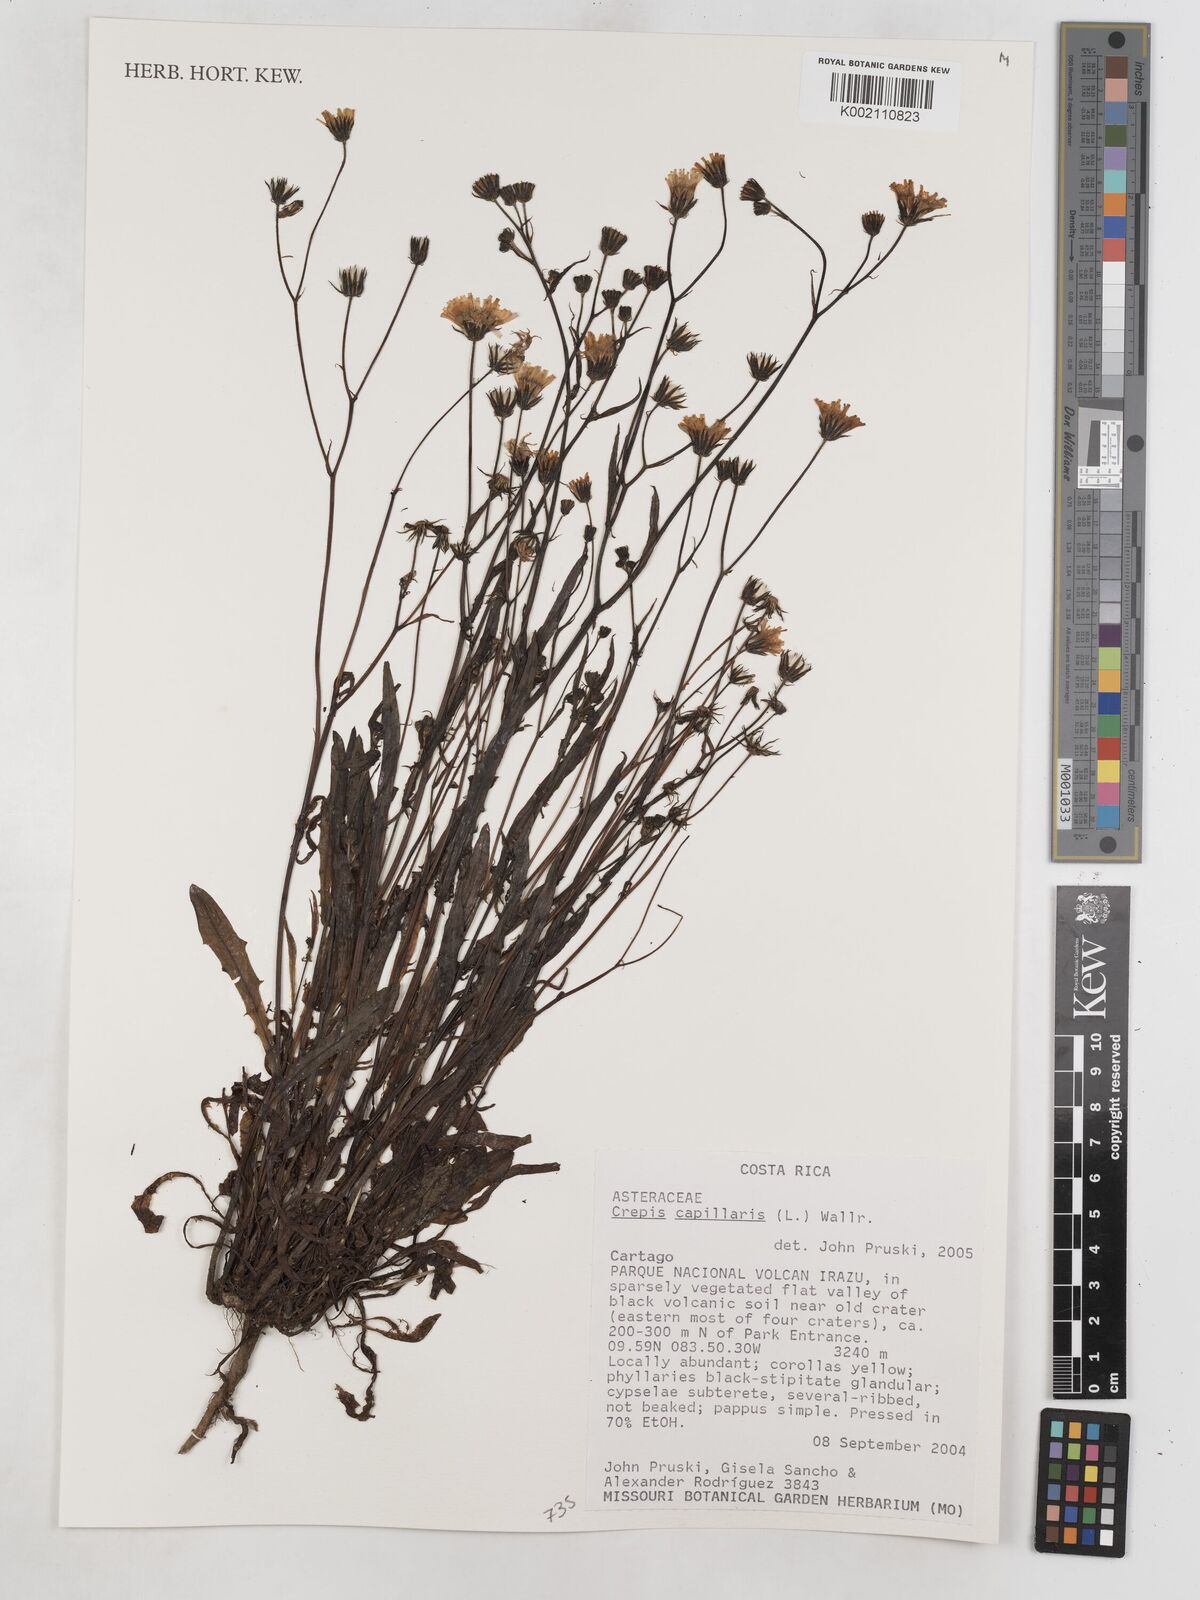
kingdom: Plantae
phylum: Tracheophyta
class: Magnoliopsida
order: Asterales
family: Asteraceae
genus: Crepis
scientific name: Crepis capillaris
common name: Smooth hawksbeard
